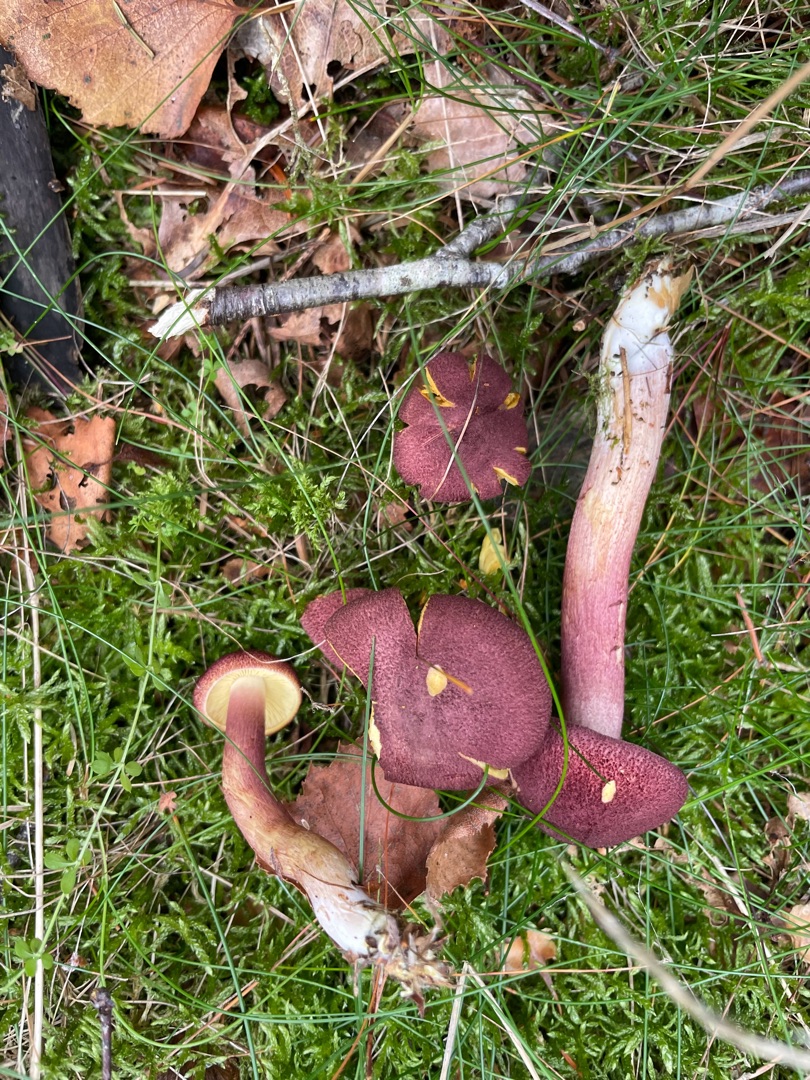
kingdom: Fungi
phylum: Basidiomycota
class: Agaricomycetes
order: Agaricales
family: Tricholomataceae
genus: Tricholomopsis
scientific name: Tricholomopsis rutilans
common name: Purpur-væbnerhat
